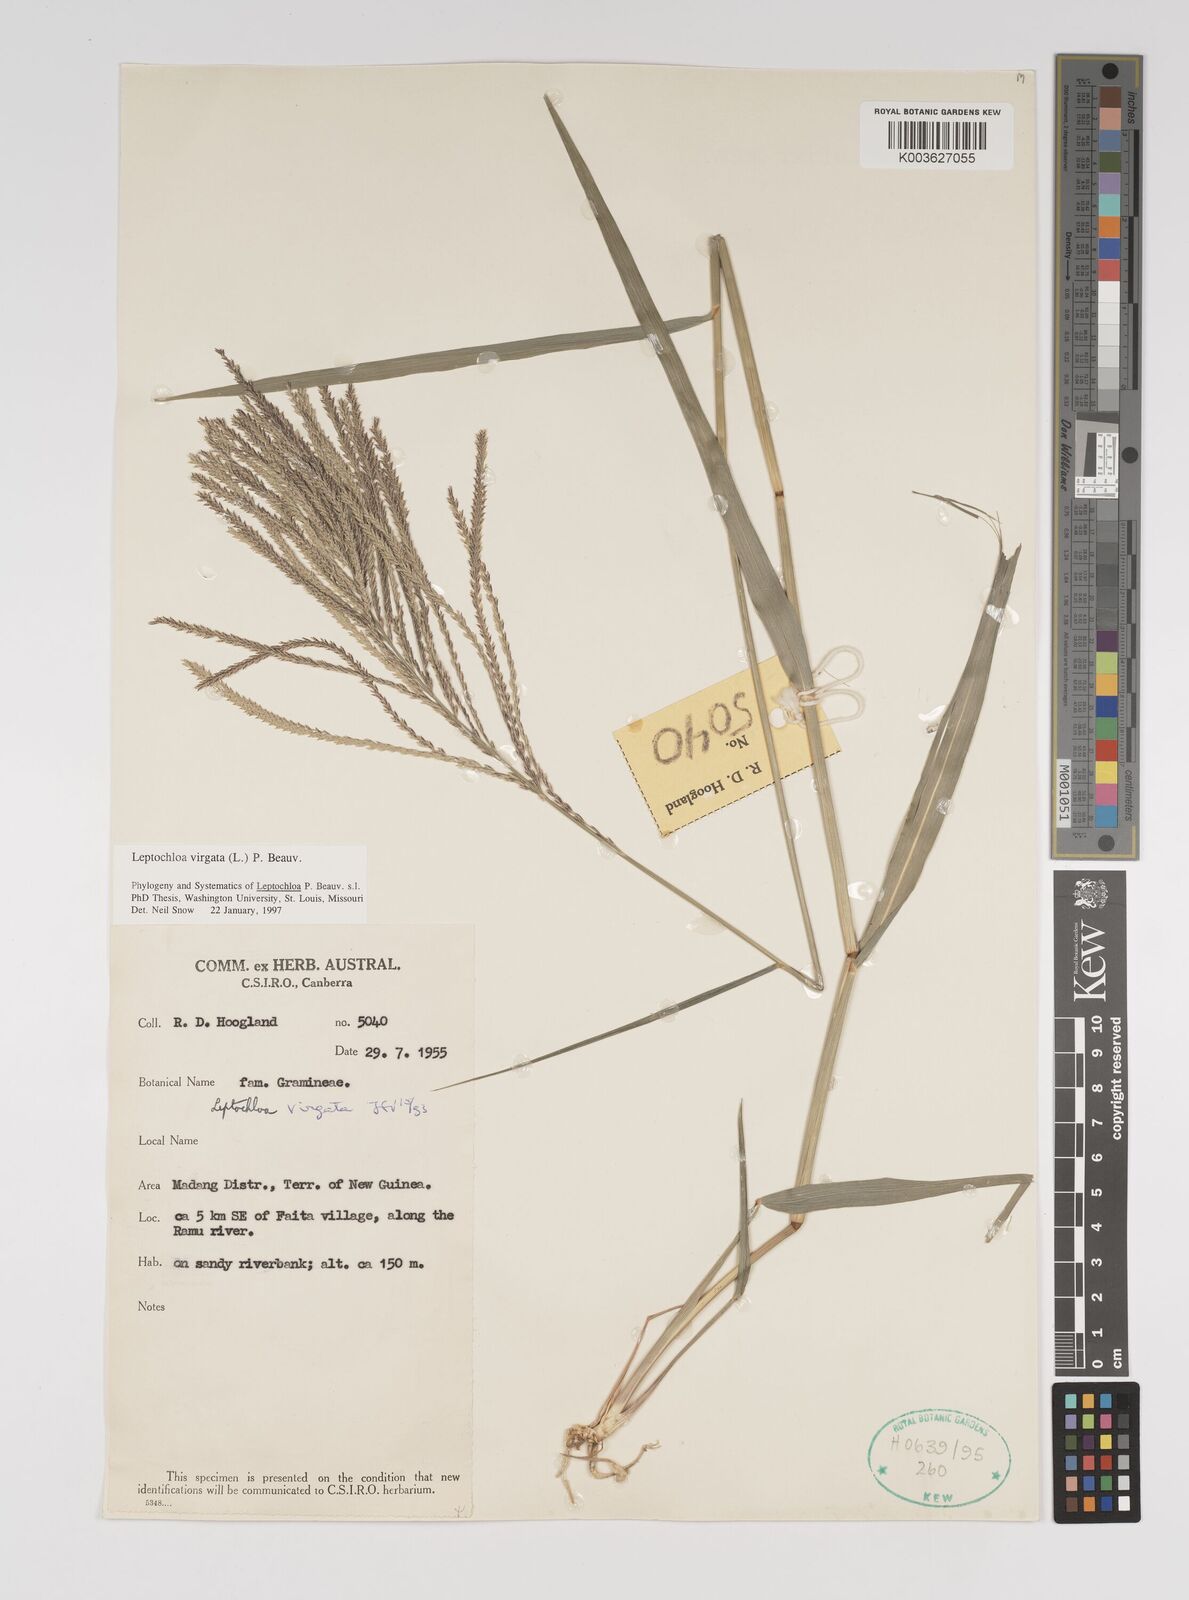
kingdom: Plantae
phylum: Tracheophyta
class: Liliopsida
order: Poales
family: Poaceae
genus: Leptochloa
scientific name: Leptochloa
